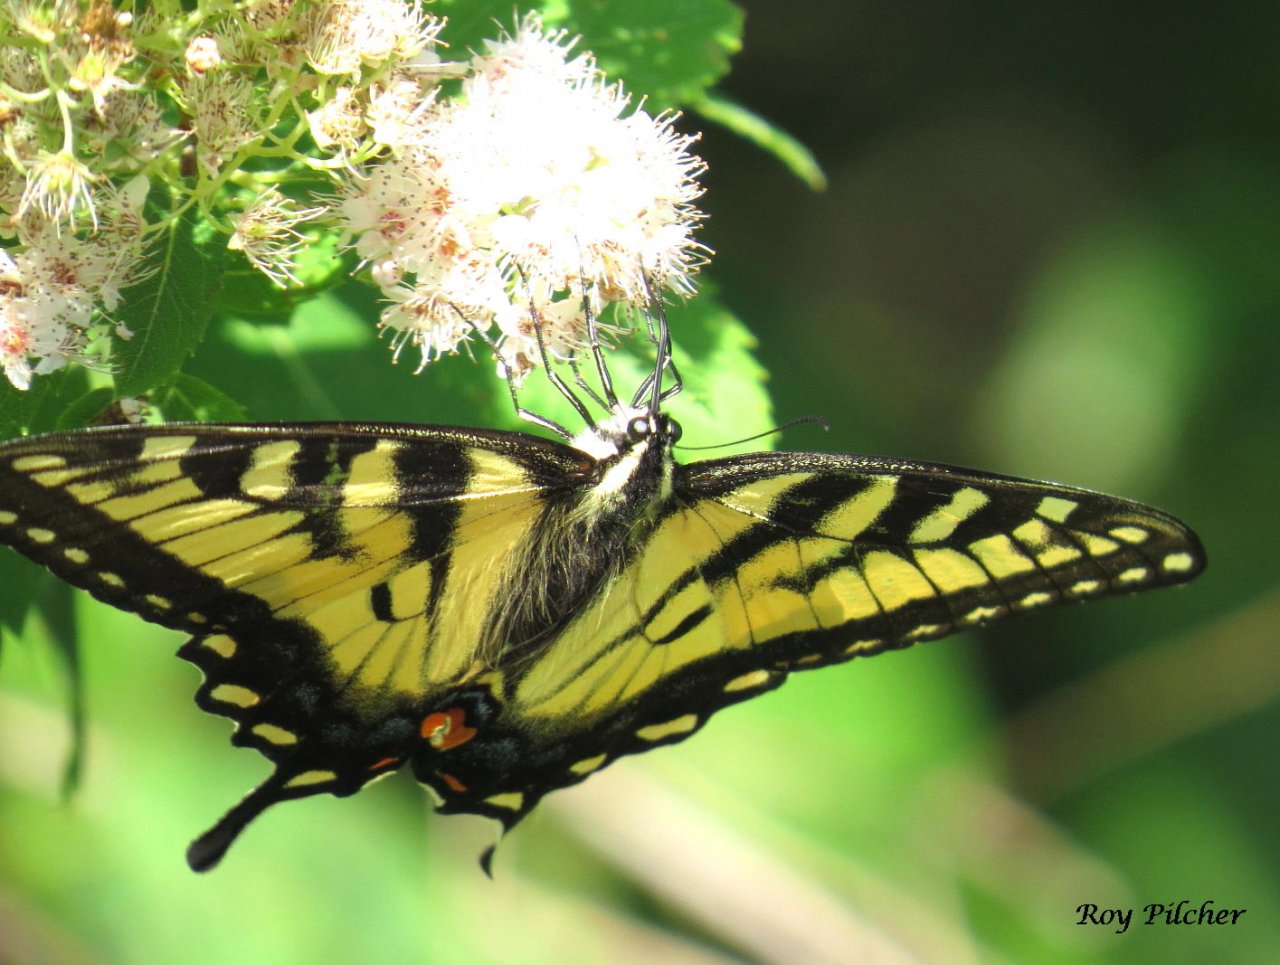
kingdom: Animalia
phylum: Arthropoda
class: Insecta
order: Lepidoptera
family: Papilionidae
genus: Pterourus
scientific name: Pterourus glaucus
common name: Eastern Tiger Swallowtail
